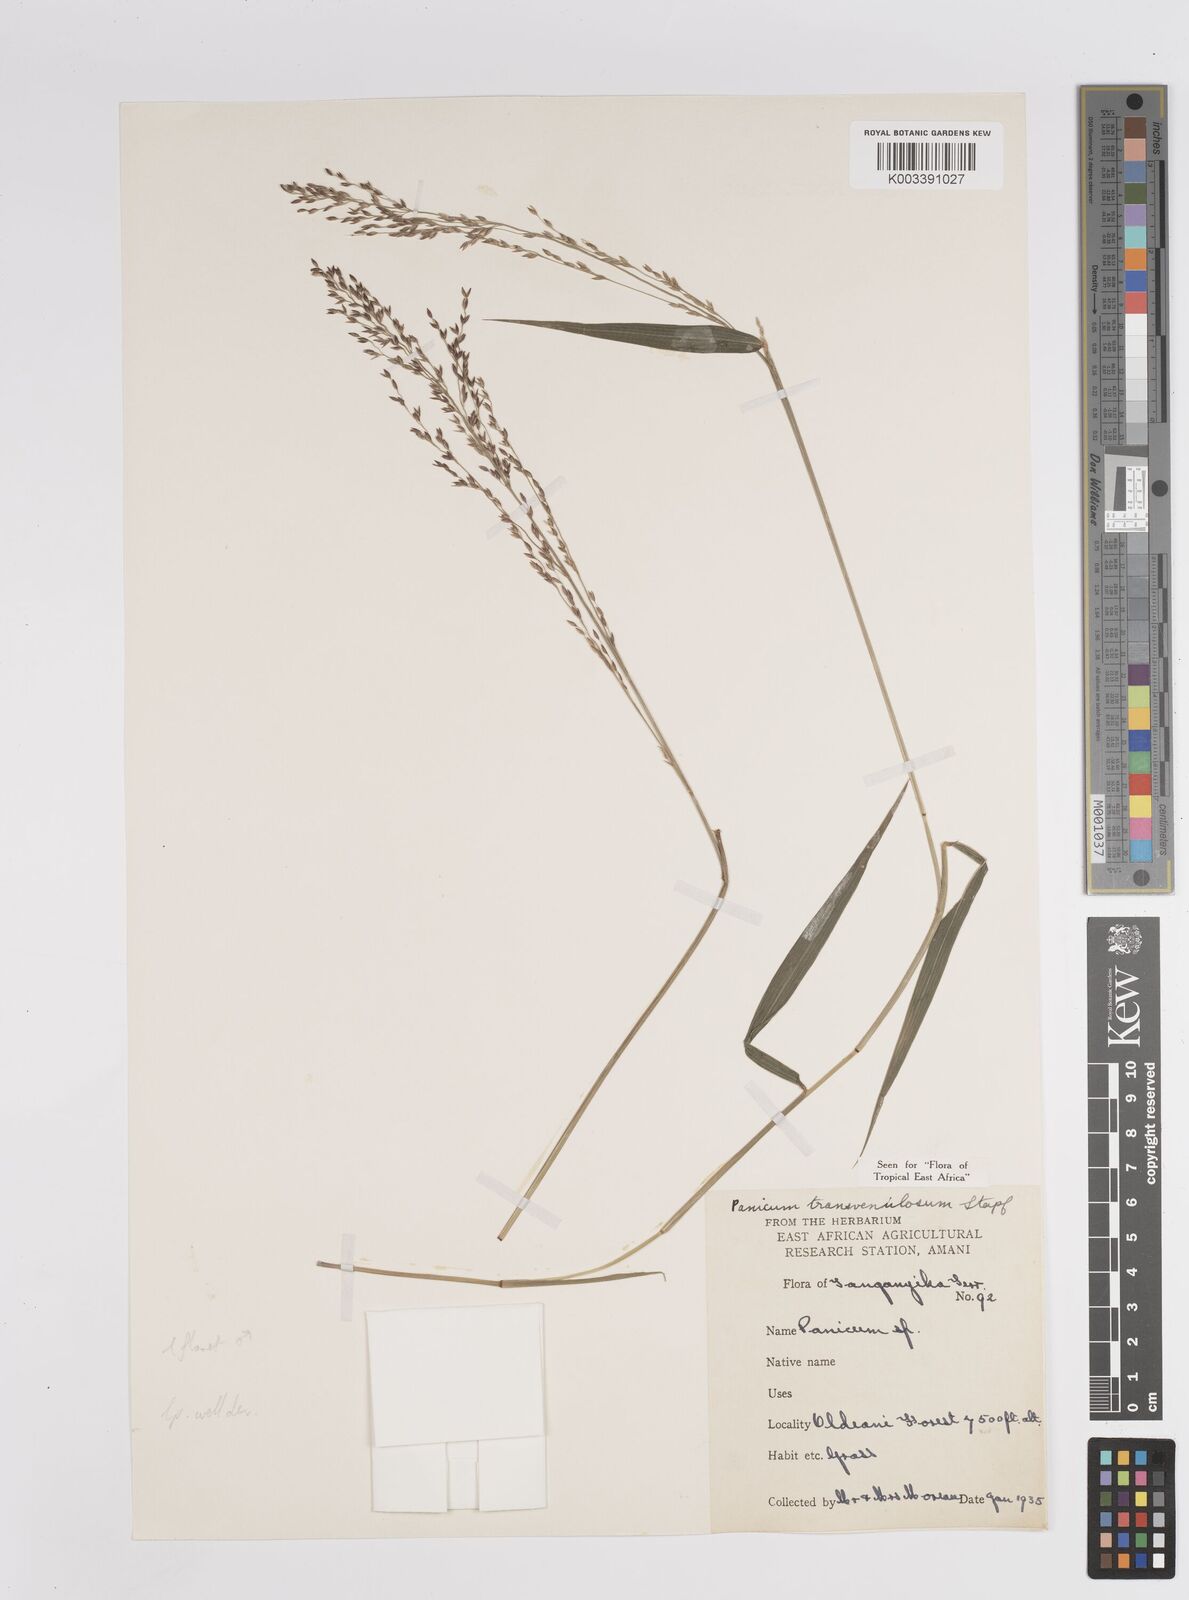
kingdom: Plantae
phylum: Tracheophyta
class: Liliopsida
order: Poales
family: Poaceae
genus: Panicum
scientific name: Panicum monticola
